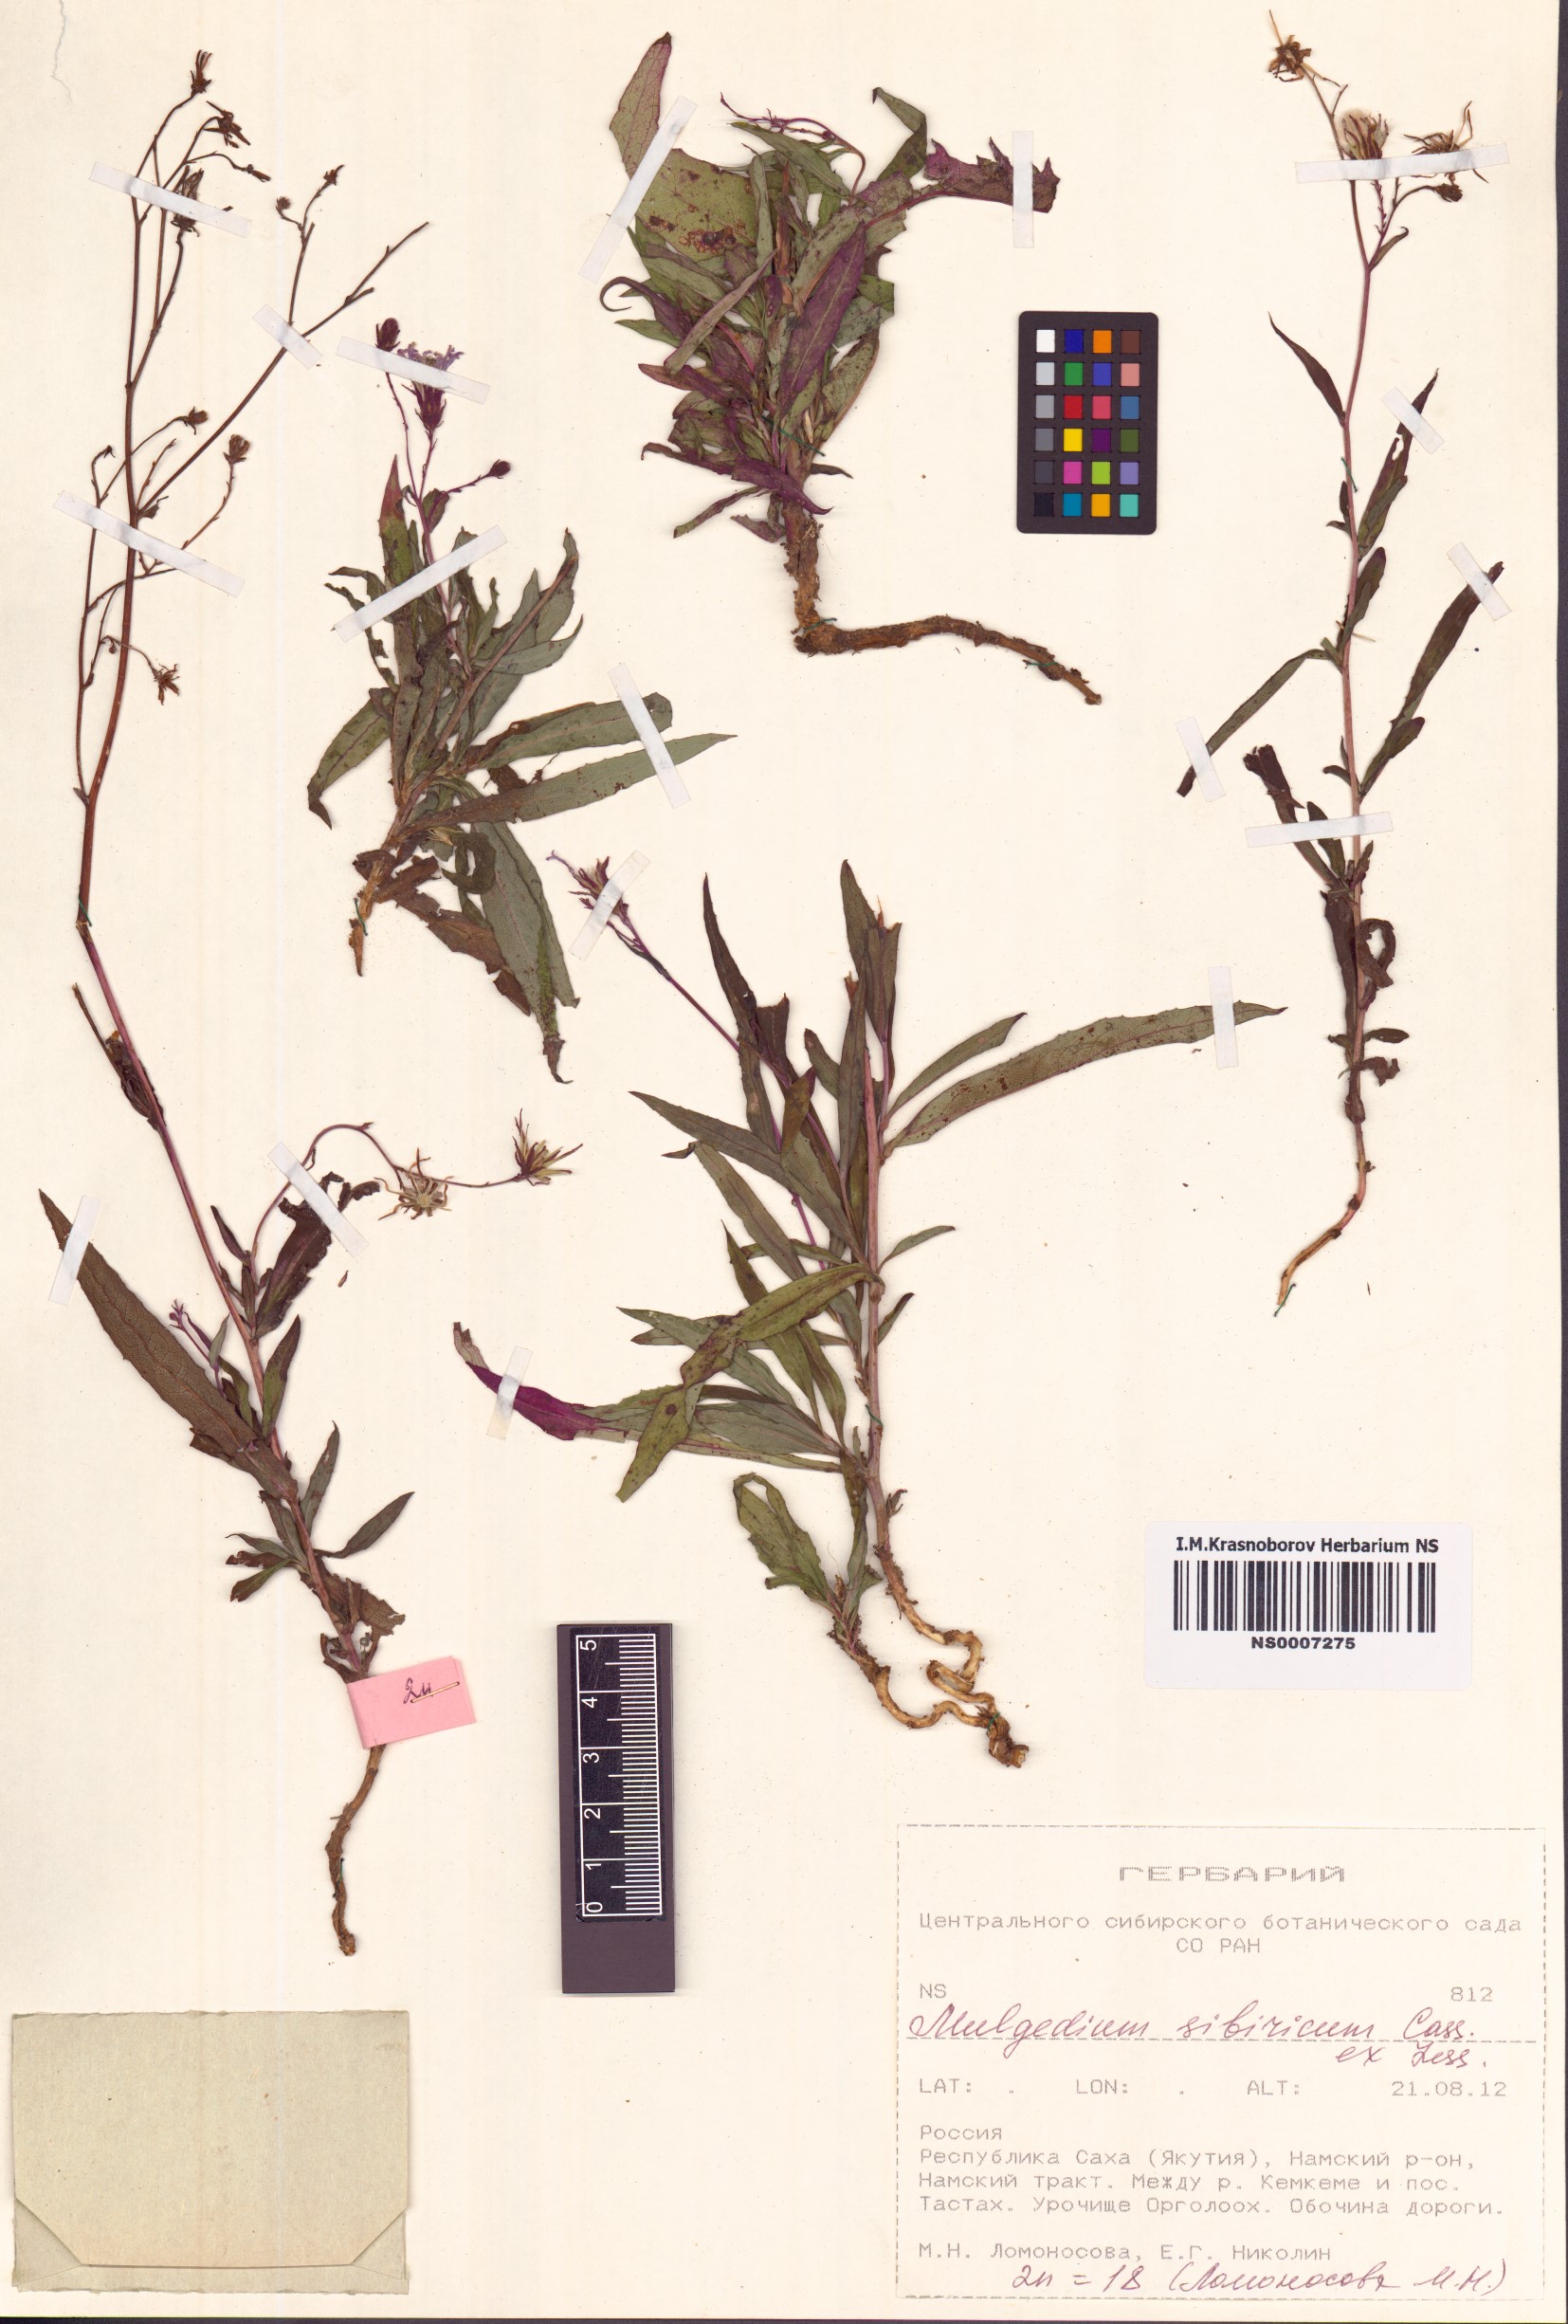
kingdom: Plantae
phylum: Tracheophyta
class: Magnoliopsida
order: Asterales
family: Asteraceae
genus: Lactuca
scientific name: Lactuca sibirica
